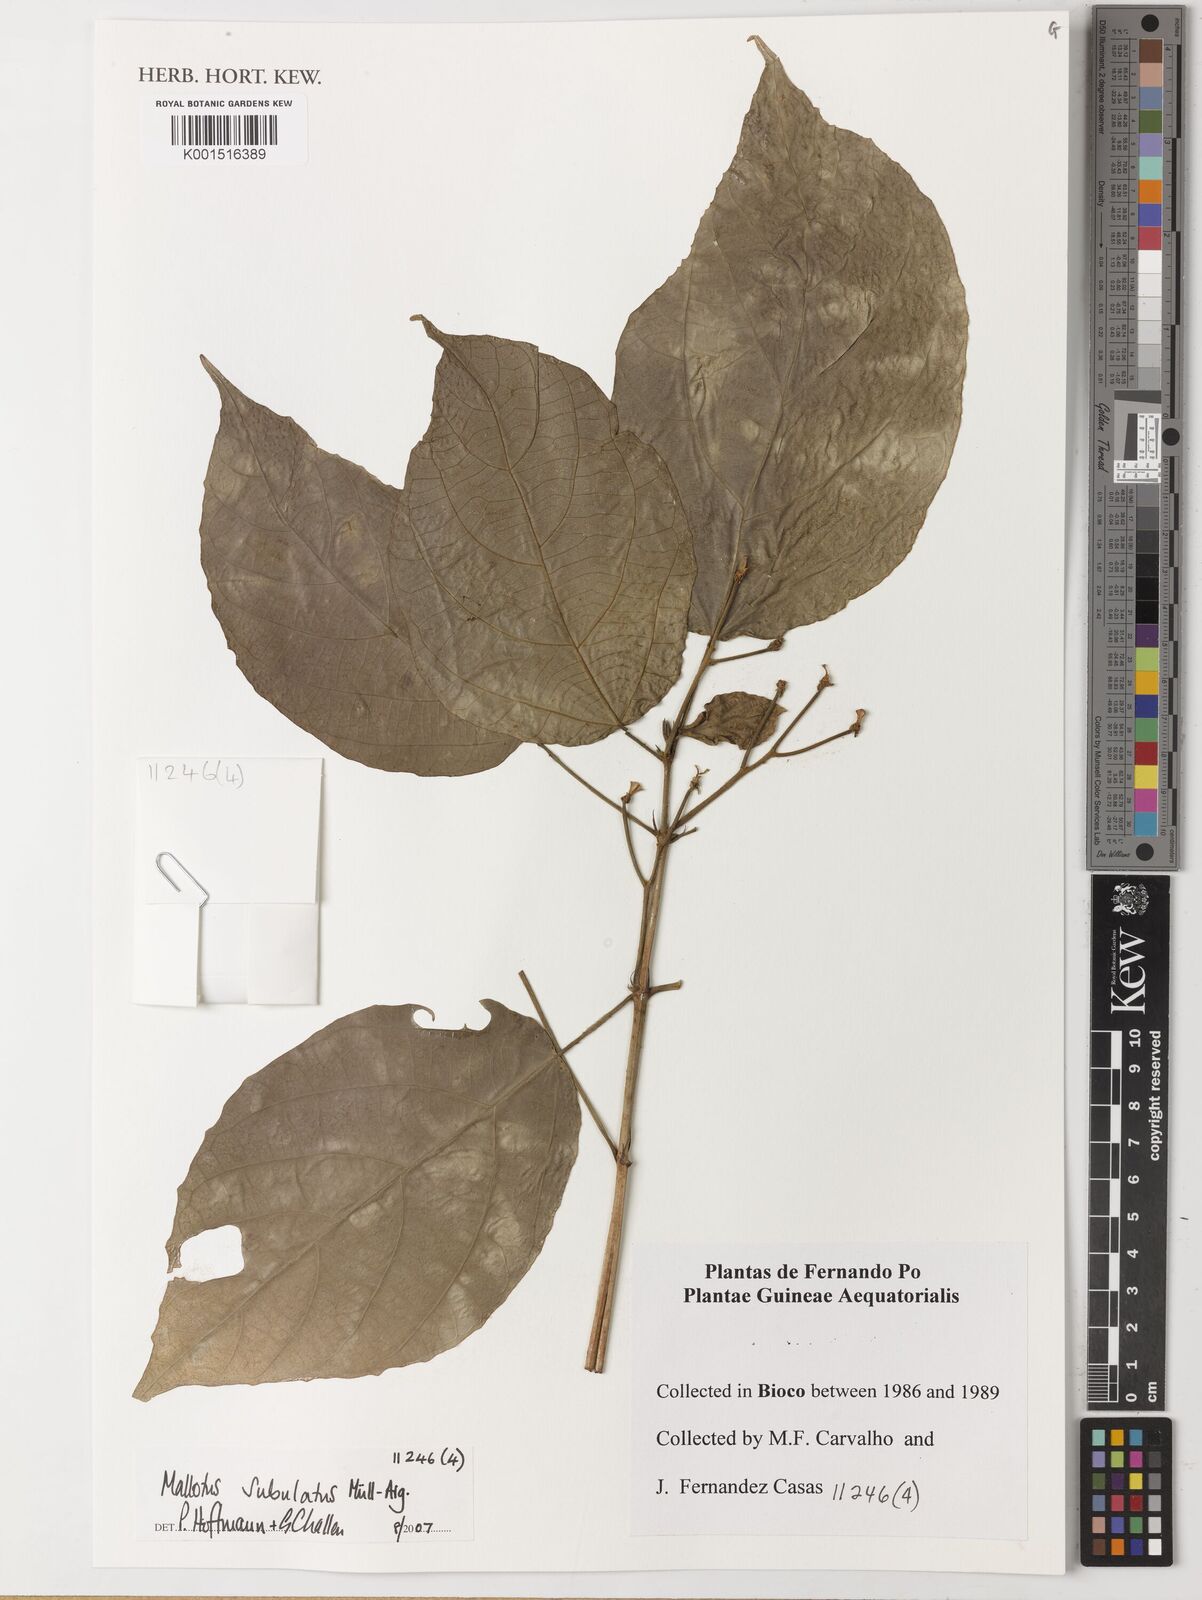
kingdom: Plantae
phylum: Tracheophyta
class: Magnoliopsida
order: Malpighiales
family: Euphorbiaceae
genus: Mallotus
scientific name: Mallotus subulatus
